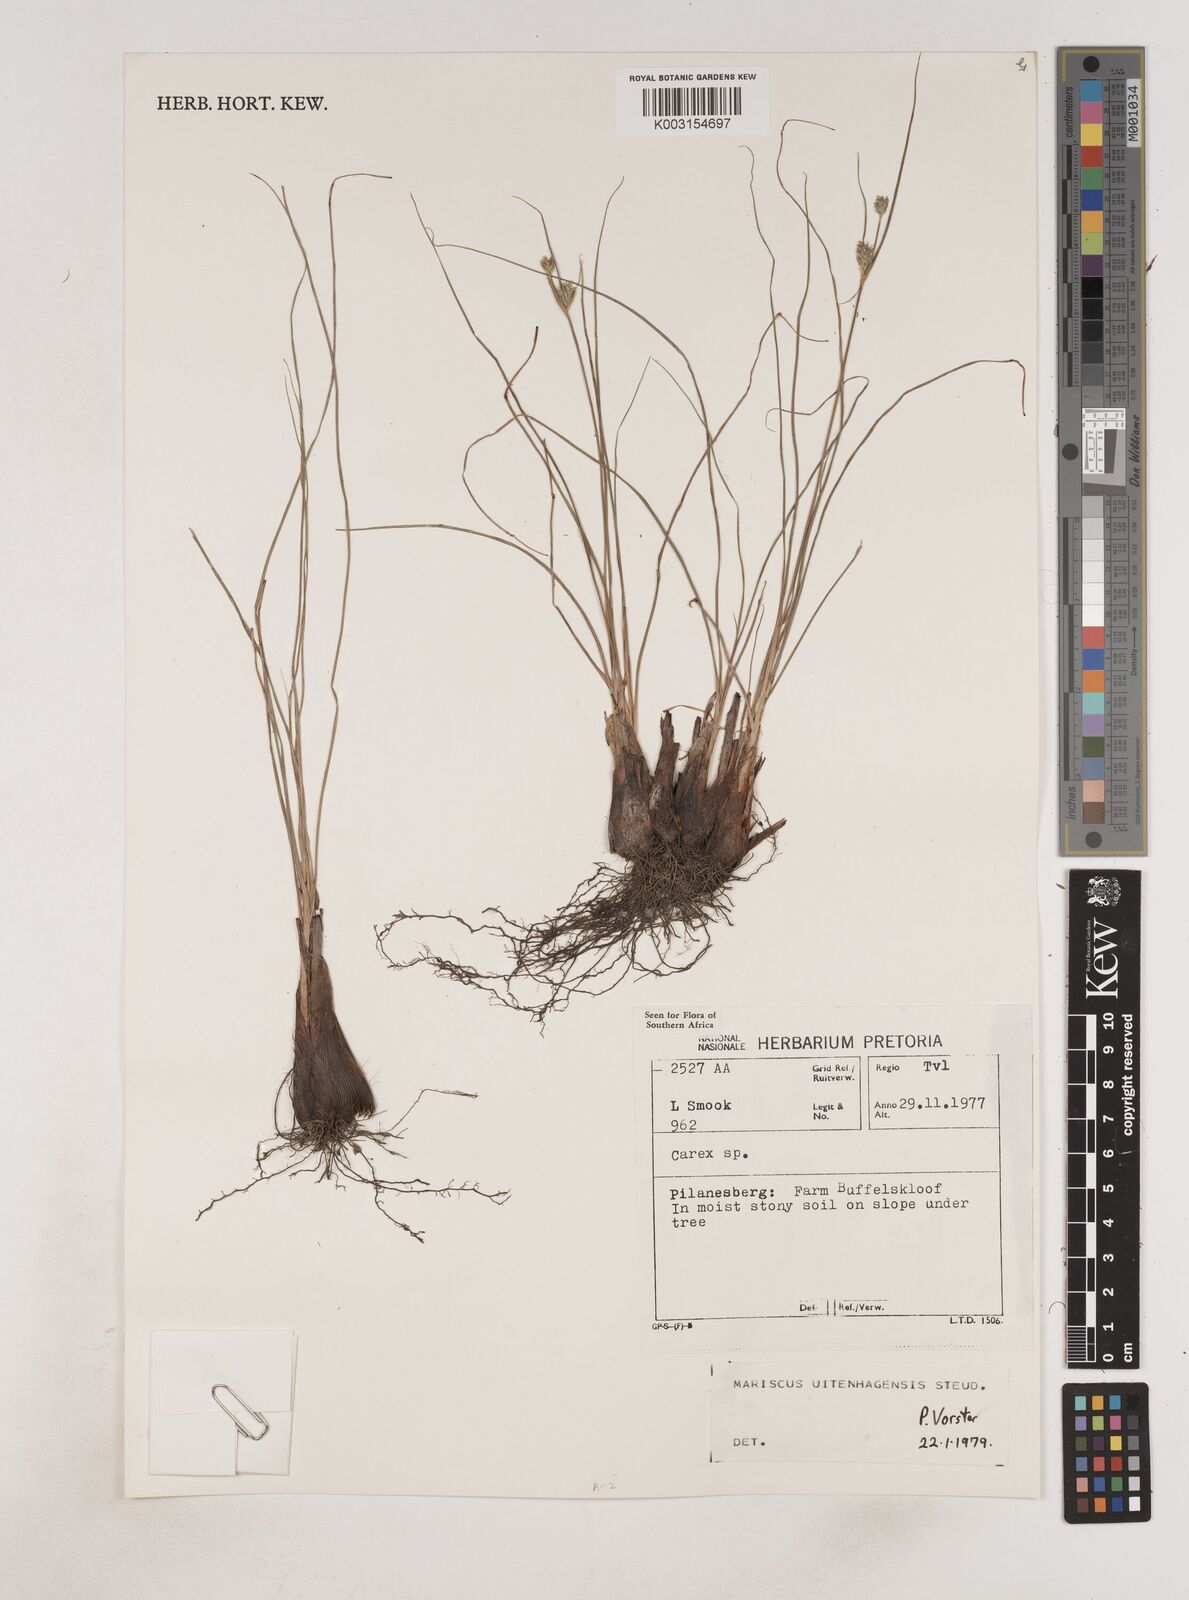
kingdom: Plantae
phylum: Tracheophyta
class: Liliopsida
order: Poales
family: Cyperaceae
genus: Cyperus
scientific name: Cyperus
